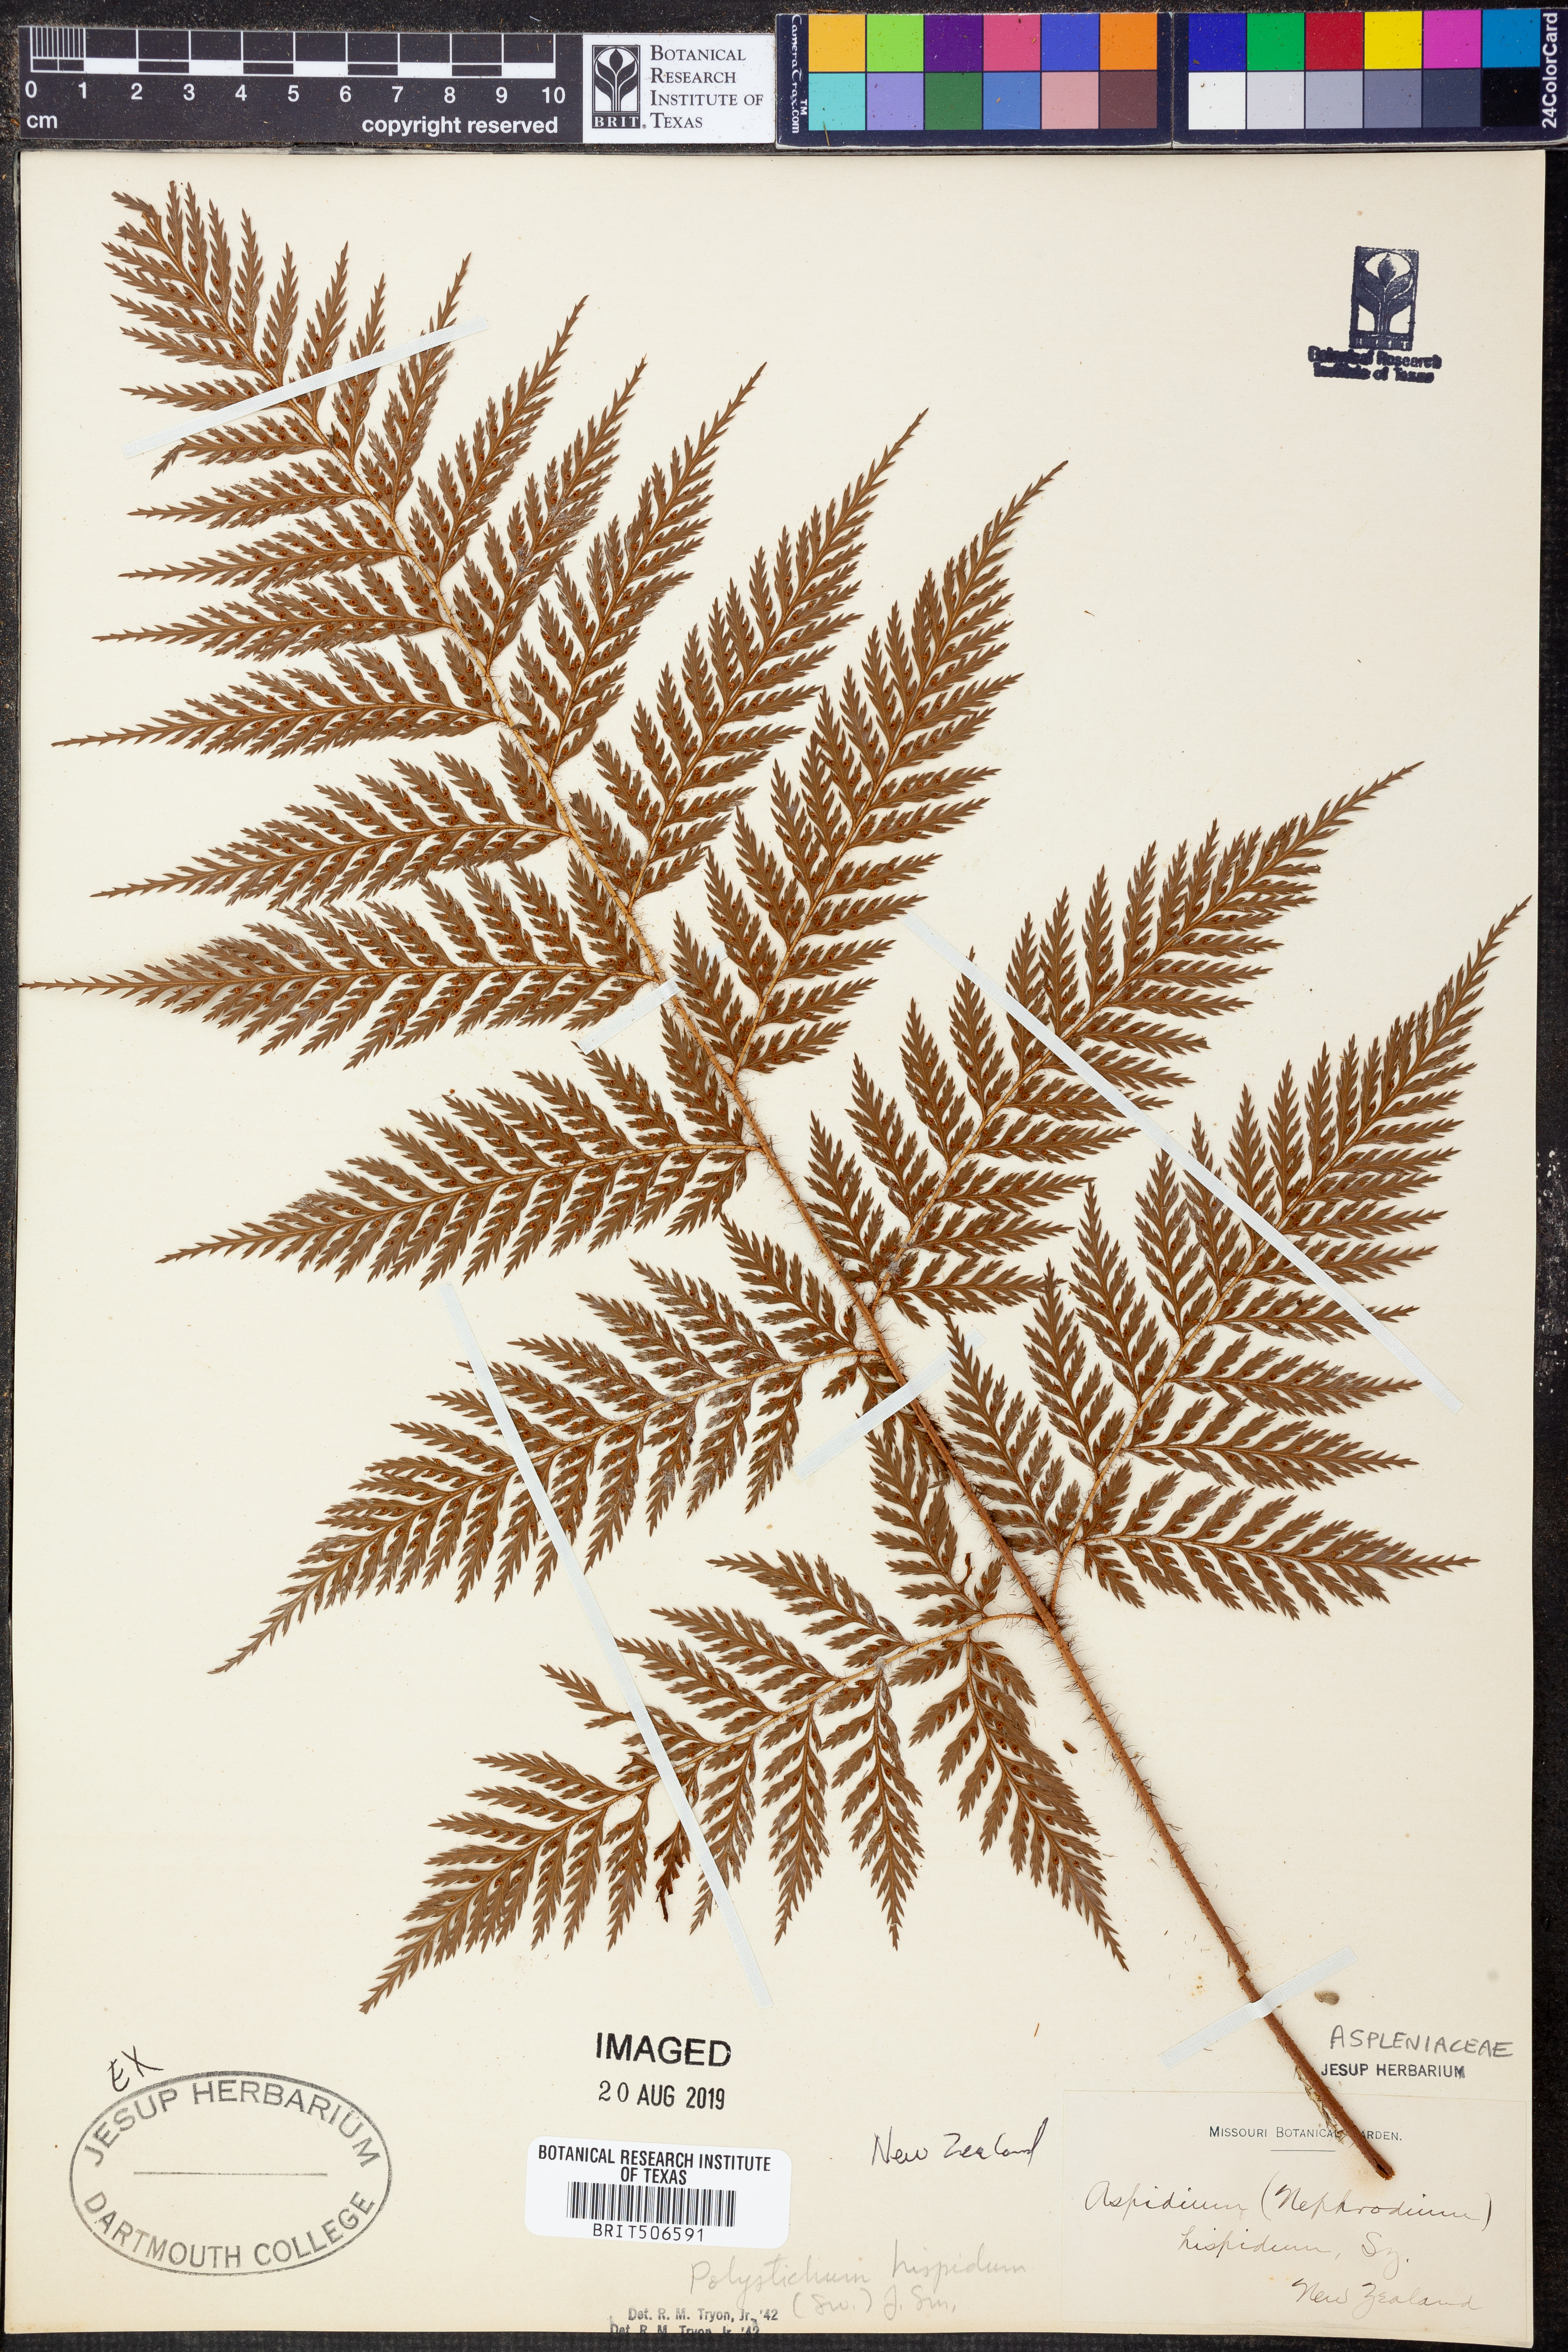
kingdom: Plantae
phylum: Tracheophyta
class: Polypodiopsida
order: Polypodiales
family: Dryopteridaceae
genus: Lastreopsis
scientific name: Lastreopsis hispida
